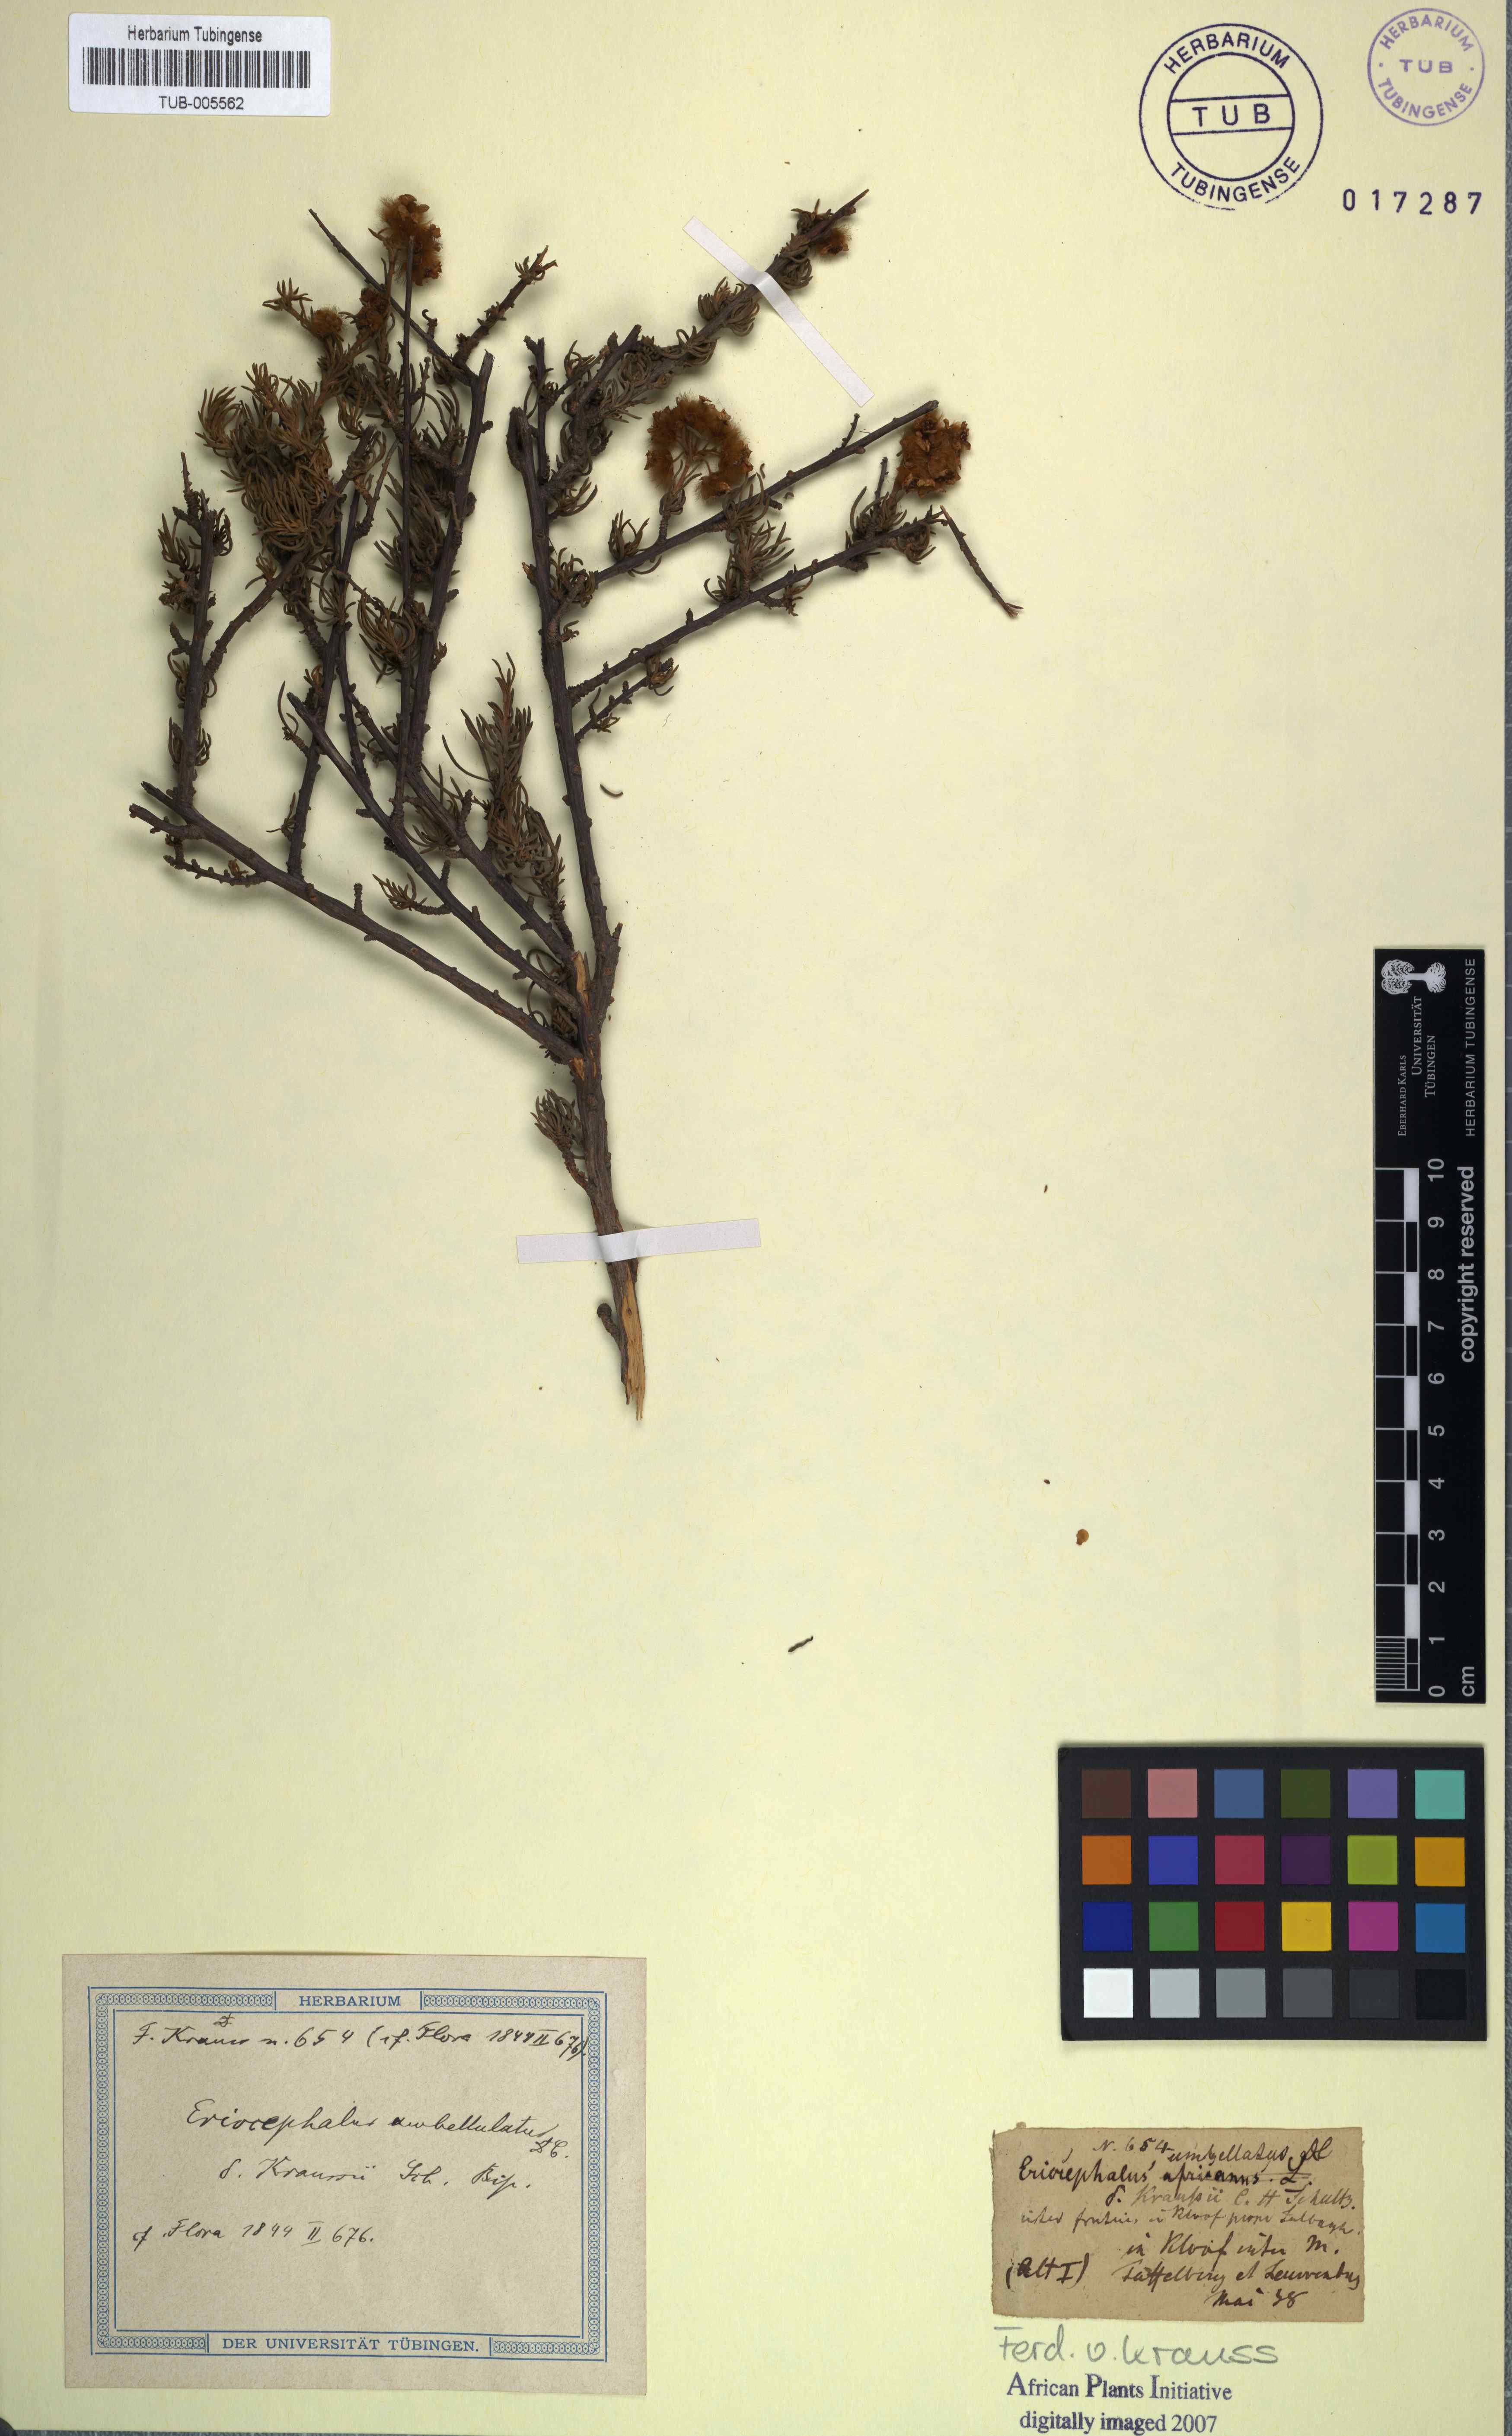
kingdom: Plantae
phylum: Tracheophyta
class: Magnoliopsida
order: Asterales
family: Asteraceae
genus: Eriocephalus
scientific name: Eriocephalus africanus
